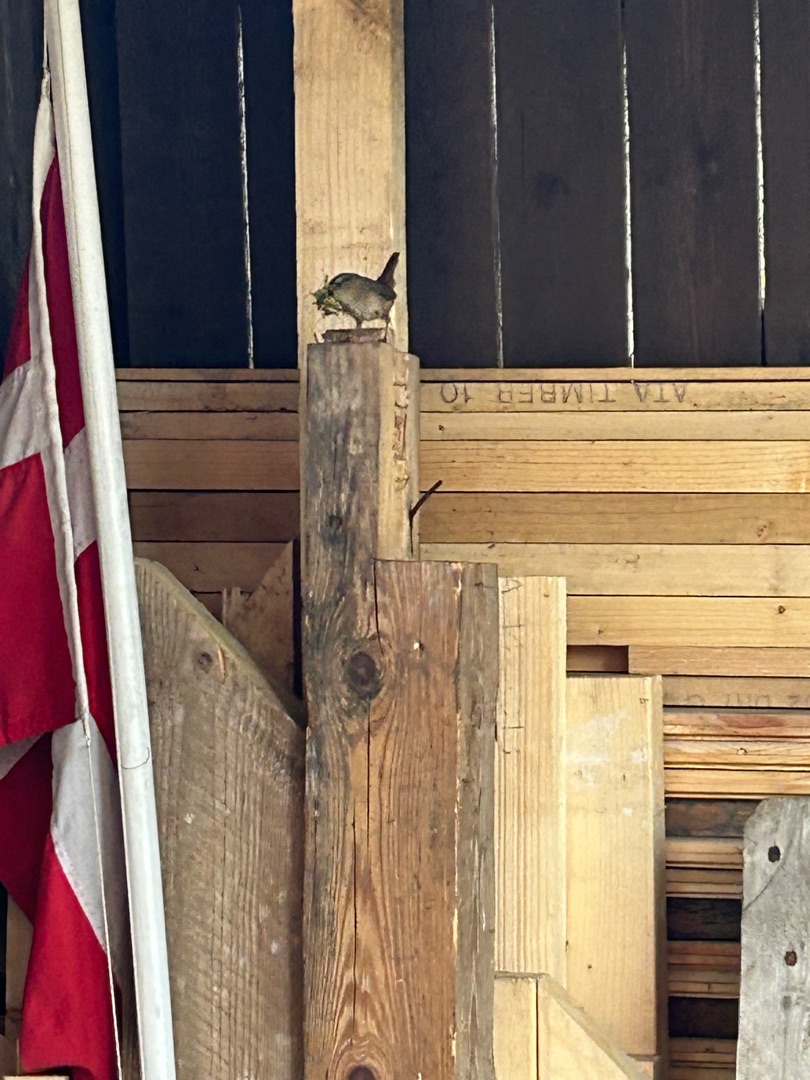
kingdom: Animalia
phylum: Chordata
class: Aves
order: Passeriformes
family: Troglodytidae
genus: Troglodytes
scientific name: Troglodytes troglodytes
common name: Gærdesmutte
